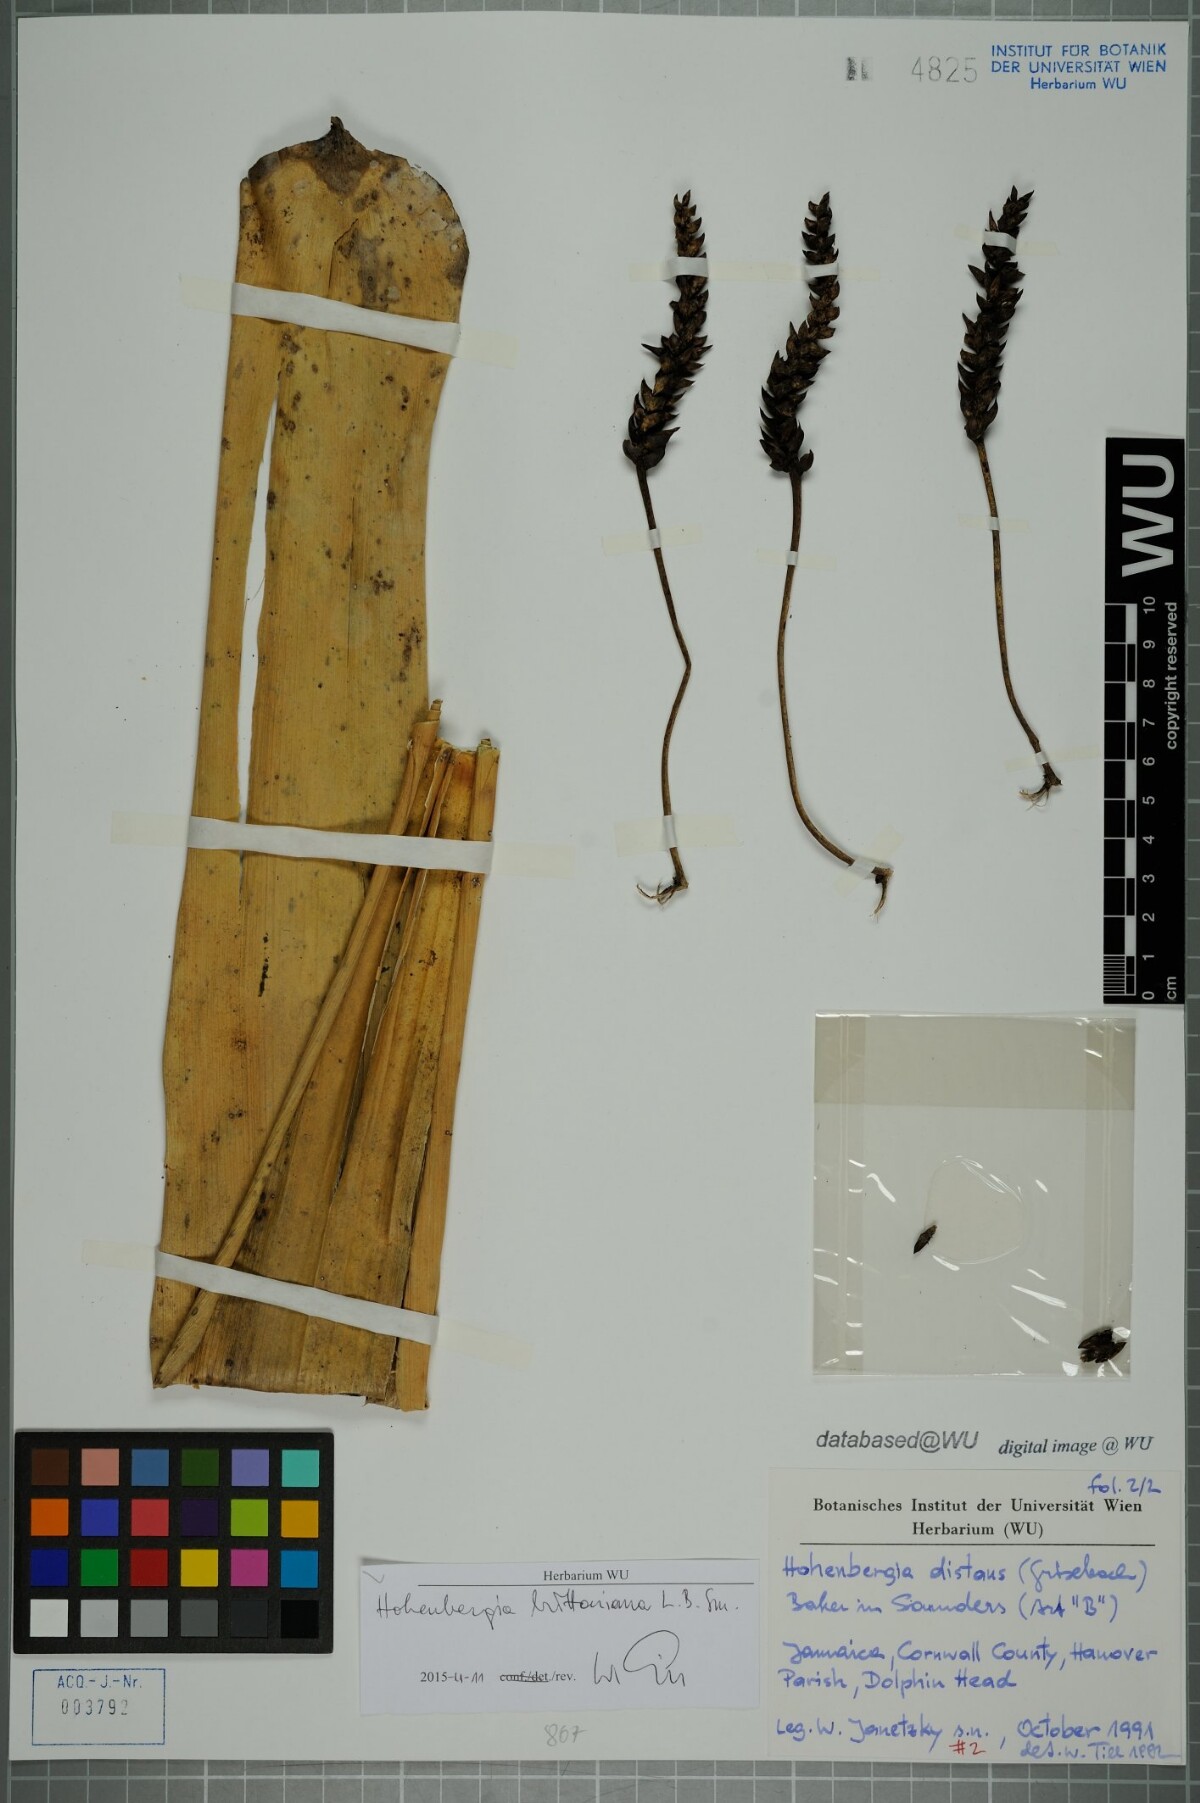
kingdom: Plantae
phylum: Tracheophyta
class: Liliopsida
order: Poales
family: Bromeliaceae
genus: Wittmackia
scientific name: Wittmackia distans
